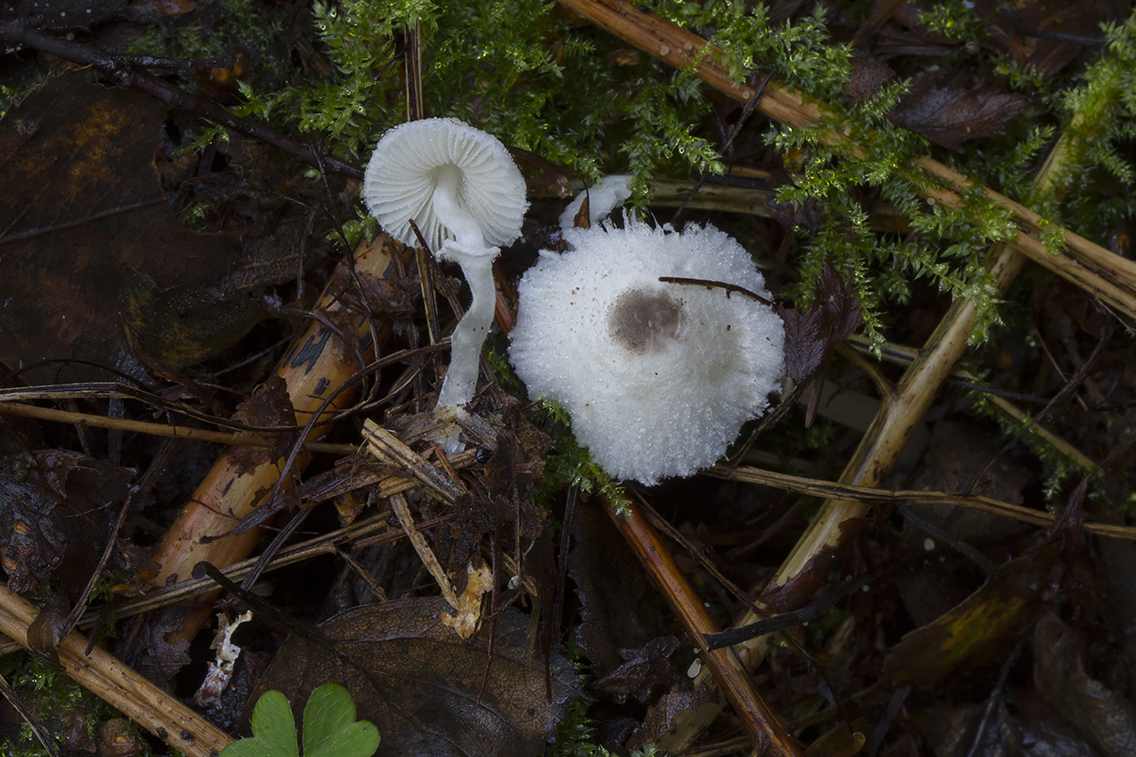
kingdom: Fungi
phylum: Basidiomycota
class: Agaricomycetes
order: Agaricales
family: Agaricaceae
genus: Leucocoprinus
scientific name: Leucocoprinus brebissonii
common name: gråsort silkehat
